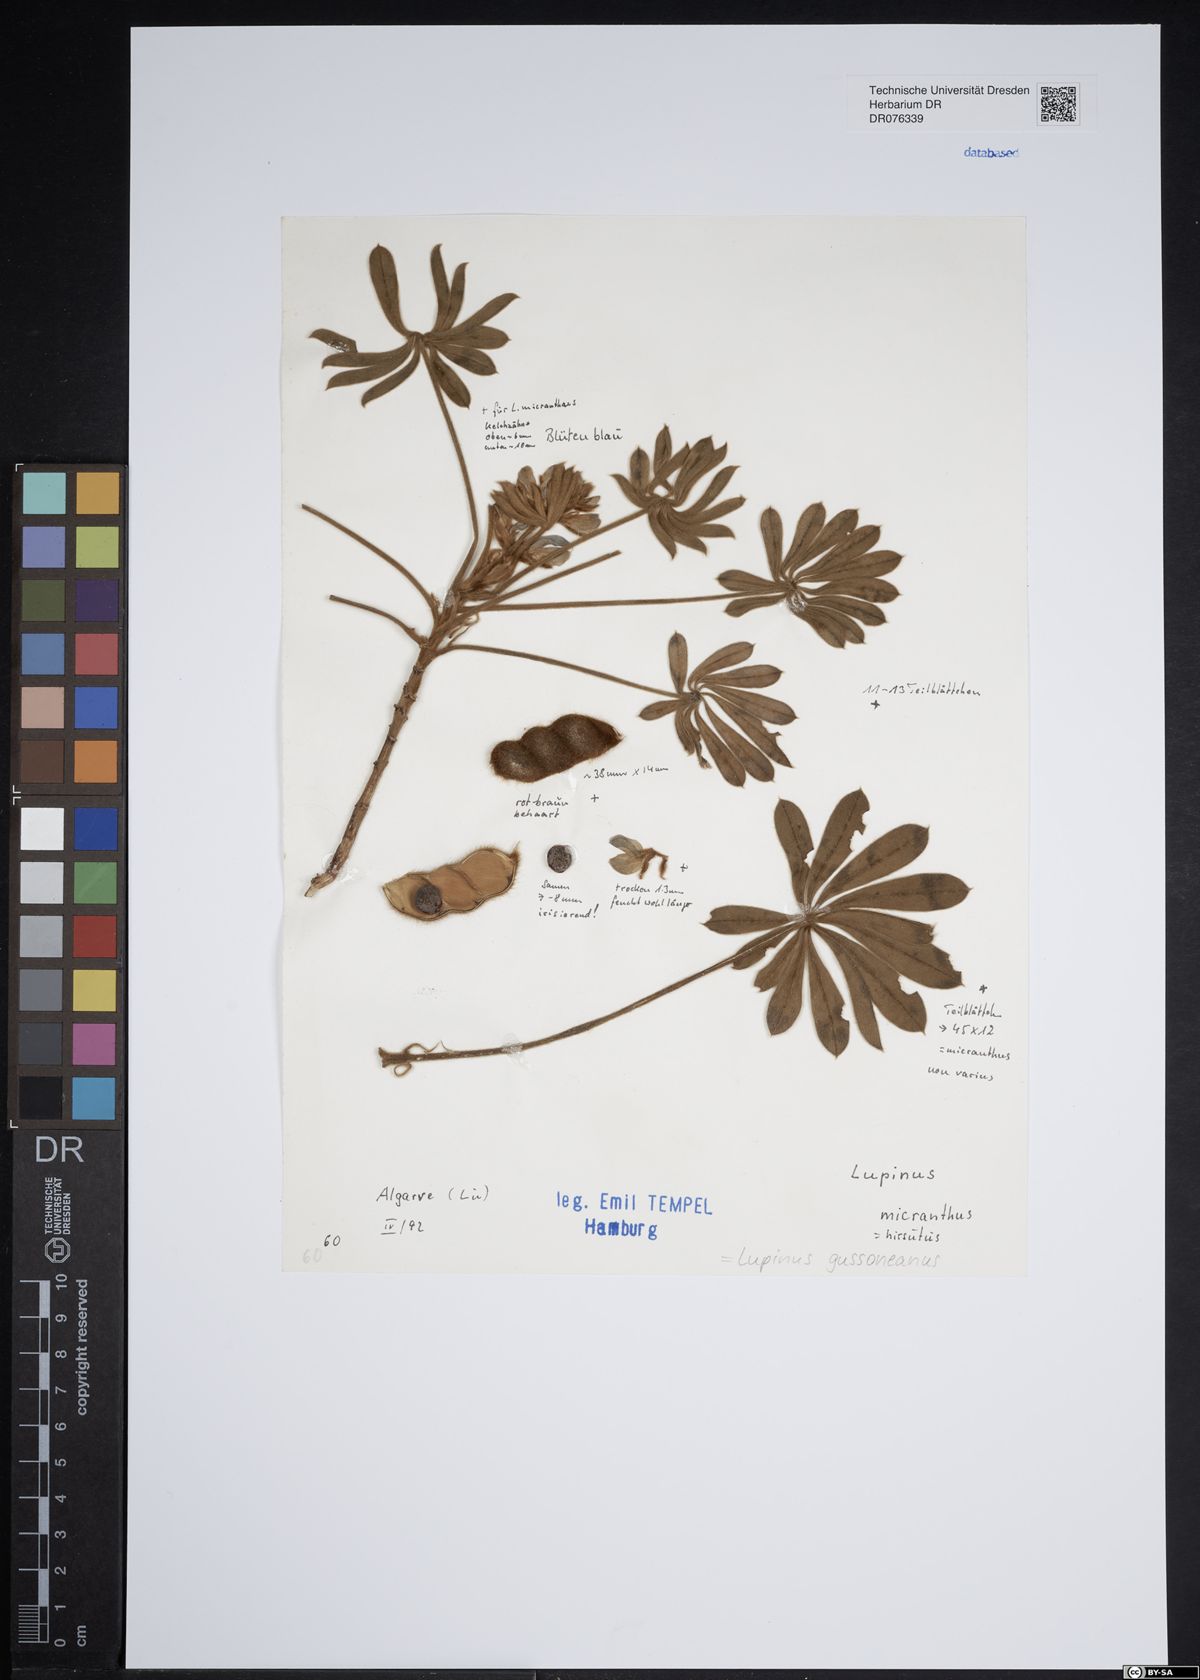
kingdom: Plantae
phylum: Tracheophyta
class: Magnoliopsida
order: Fabales
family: Fabaceae
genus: Lupinus
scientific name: Lupinus gussoneanus
